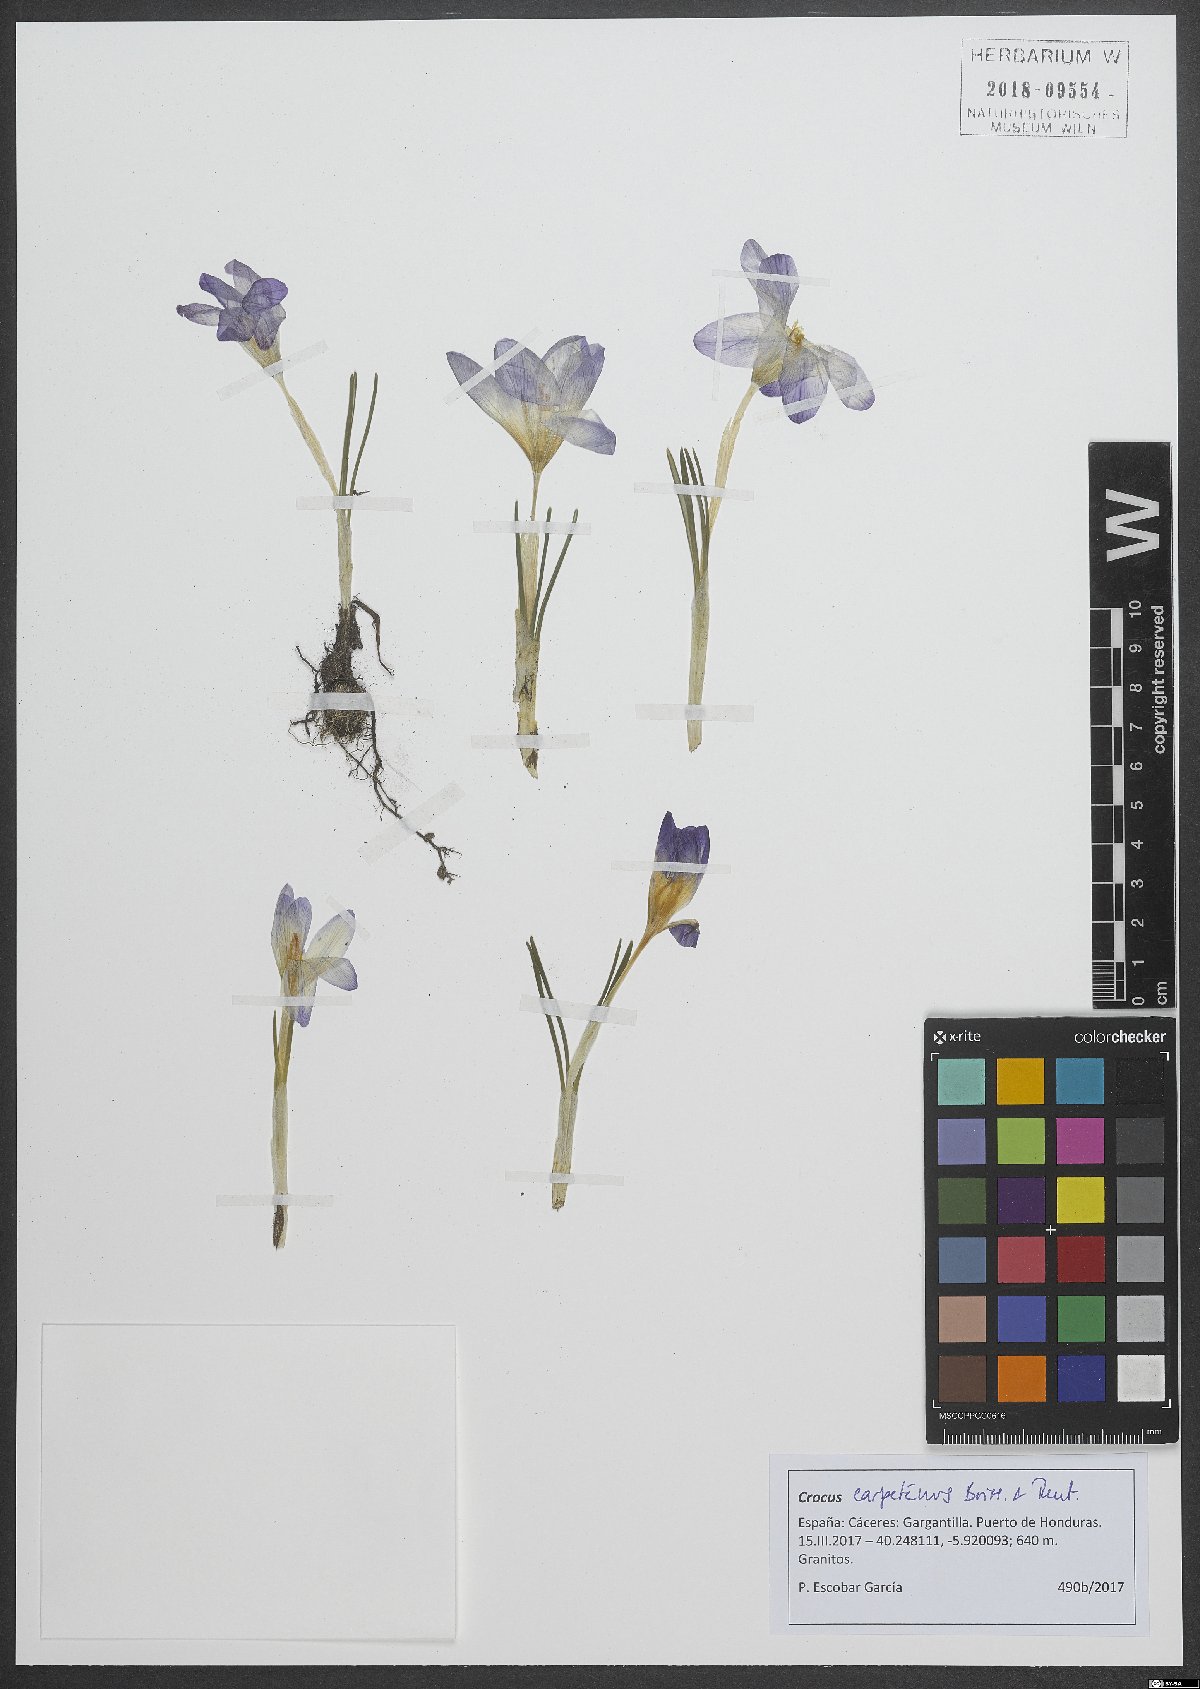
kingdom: Plantae
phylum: Tracheophyta
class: Liliopsida
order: Asparagales
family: Iridaceae
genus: Crocus
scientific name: Crocus carpetanus
